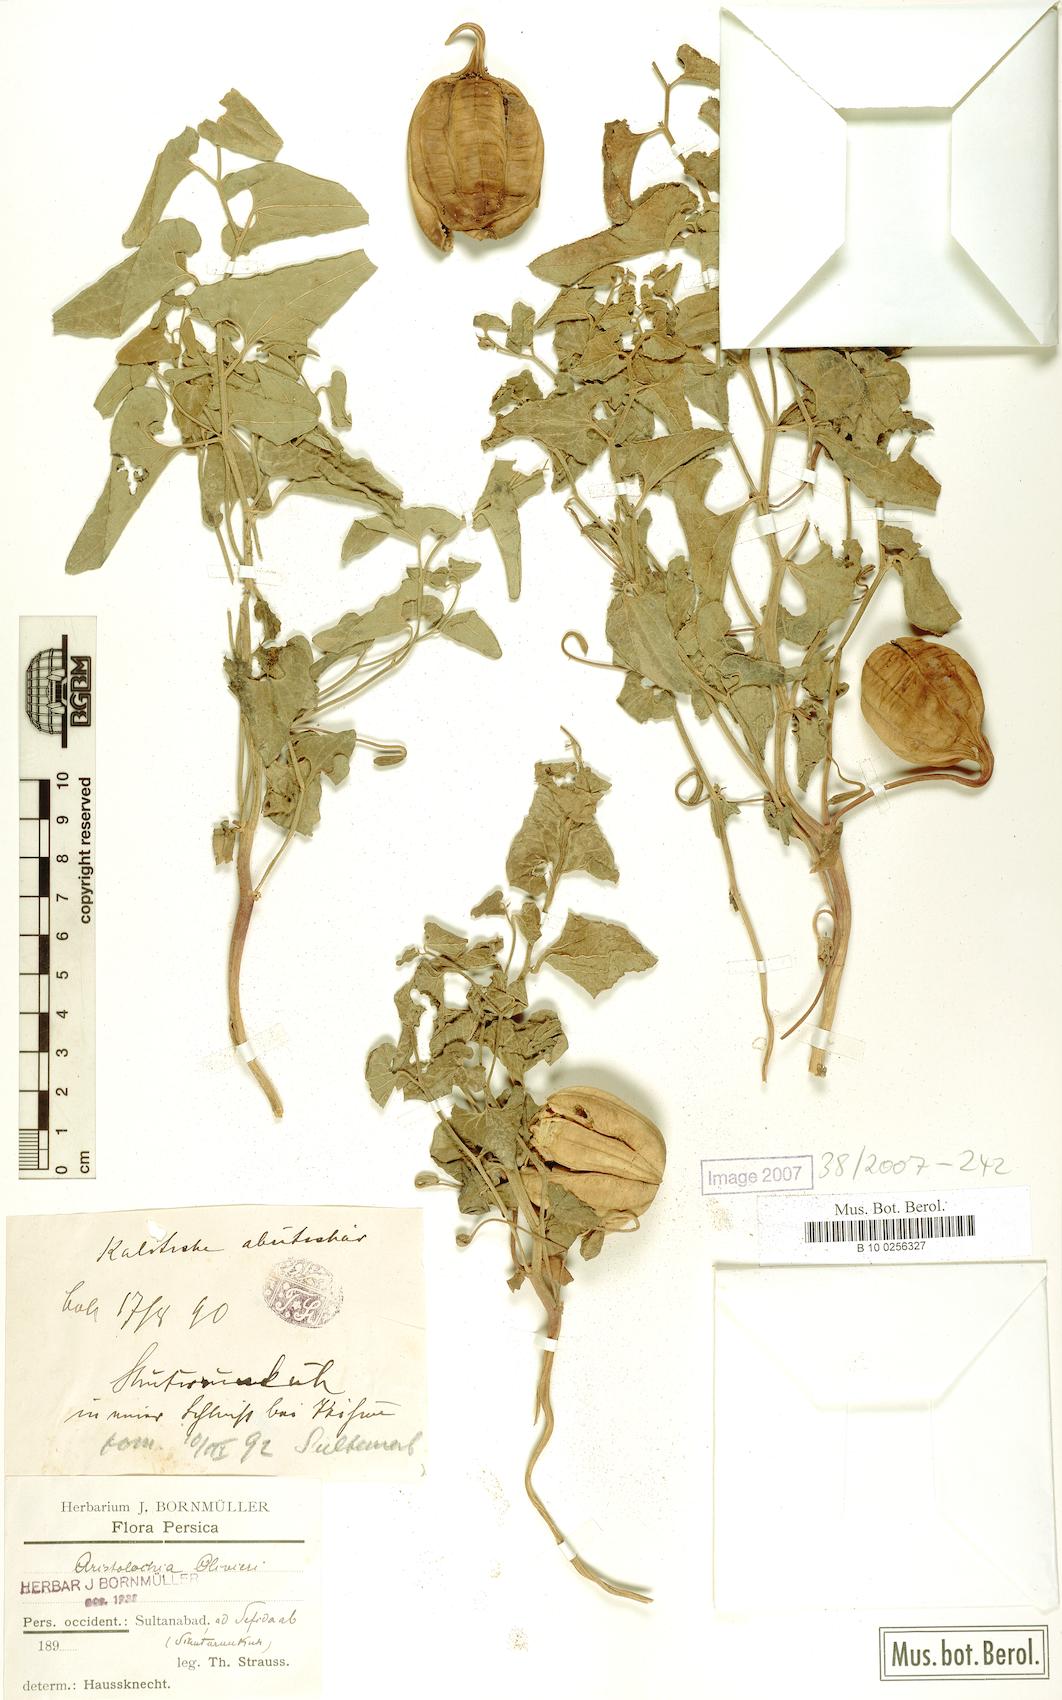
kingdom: Plantae
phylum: Tracheophyta
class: Magnoliopsida
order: Piperales
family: Aristolochiaceae
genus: Aristolochia
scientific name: Aristolochia olivieri
